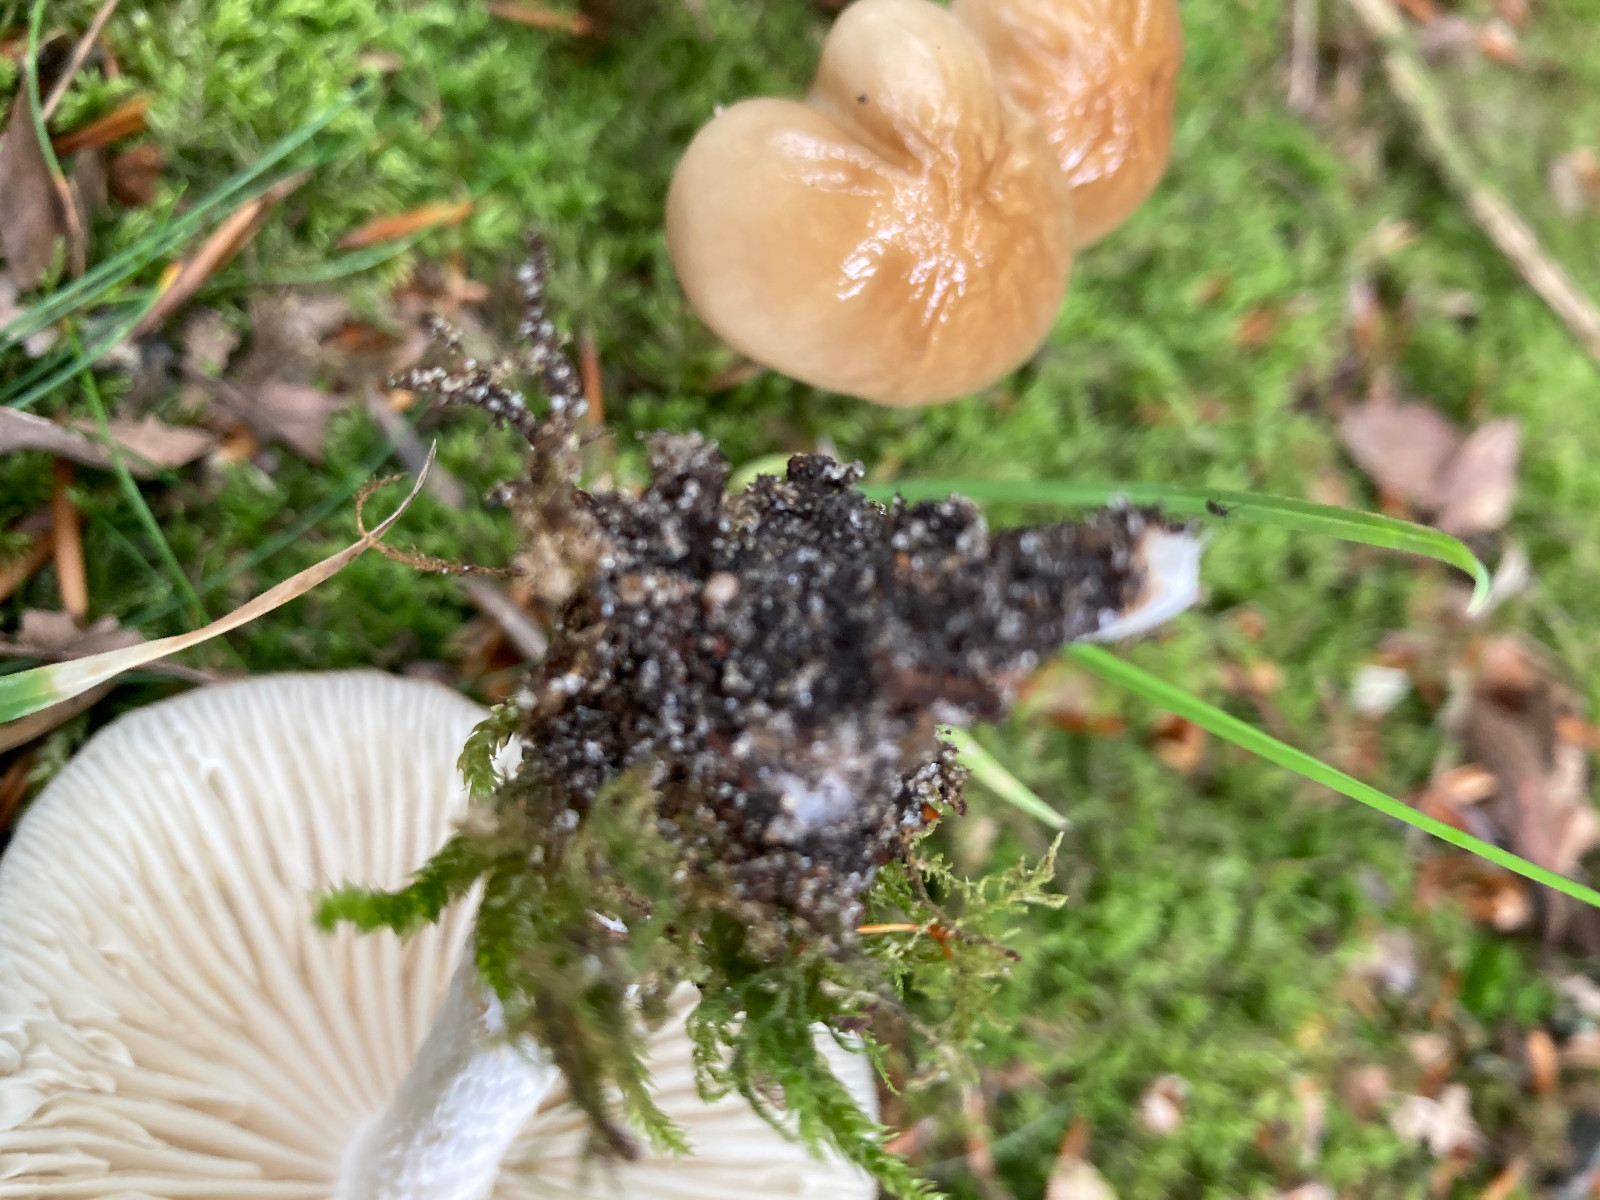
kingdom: Fungi
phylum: Basidiomycota
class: Agaricomycetes
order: Agaricales
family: Physalacriaceae
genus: Hymenopellis
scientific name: Hymenopellis radicata
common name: almindelig pælerodshat
